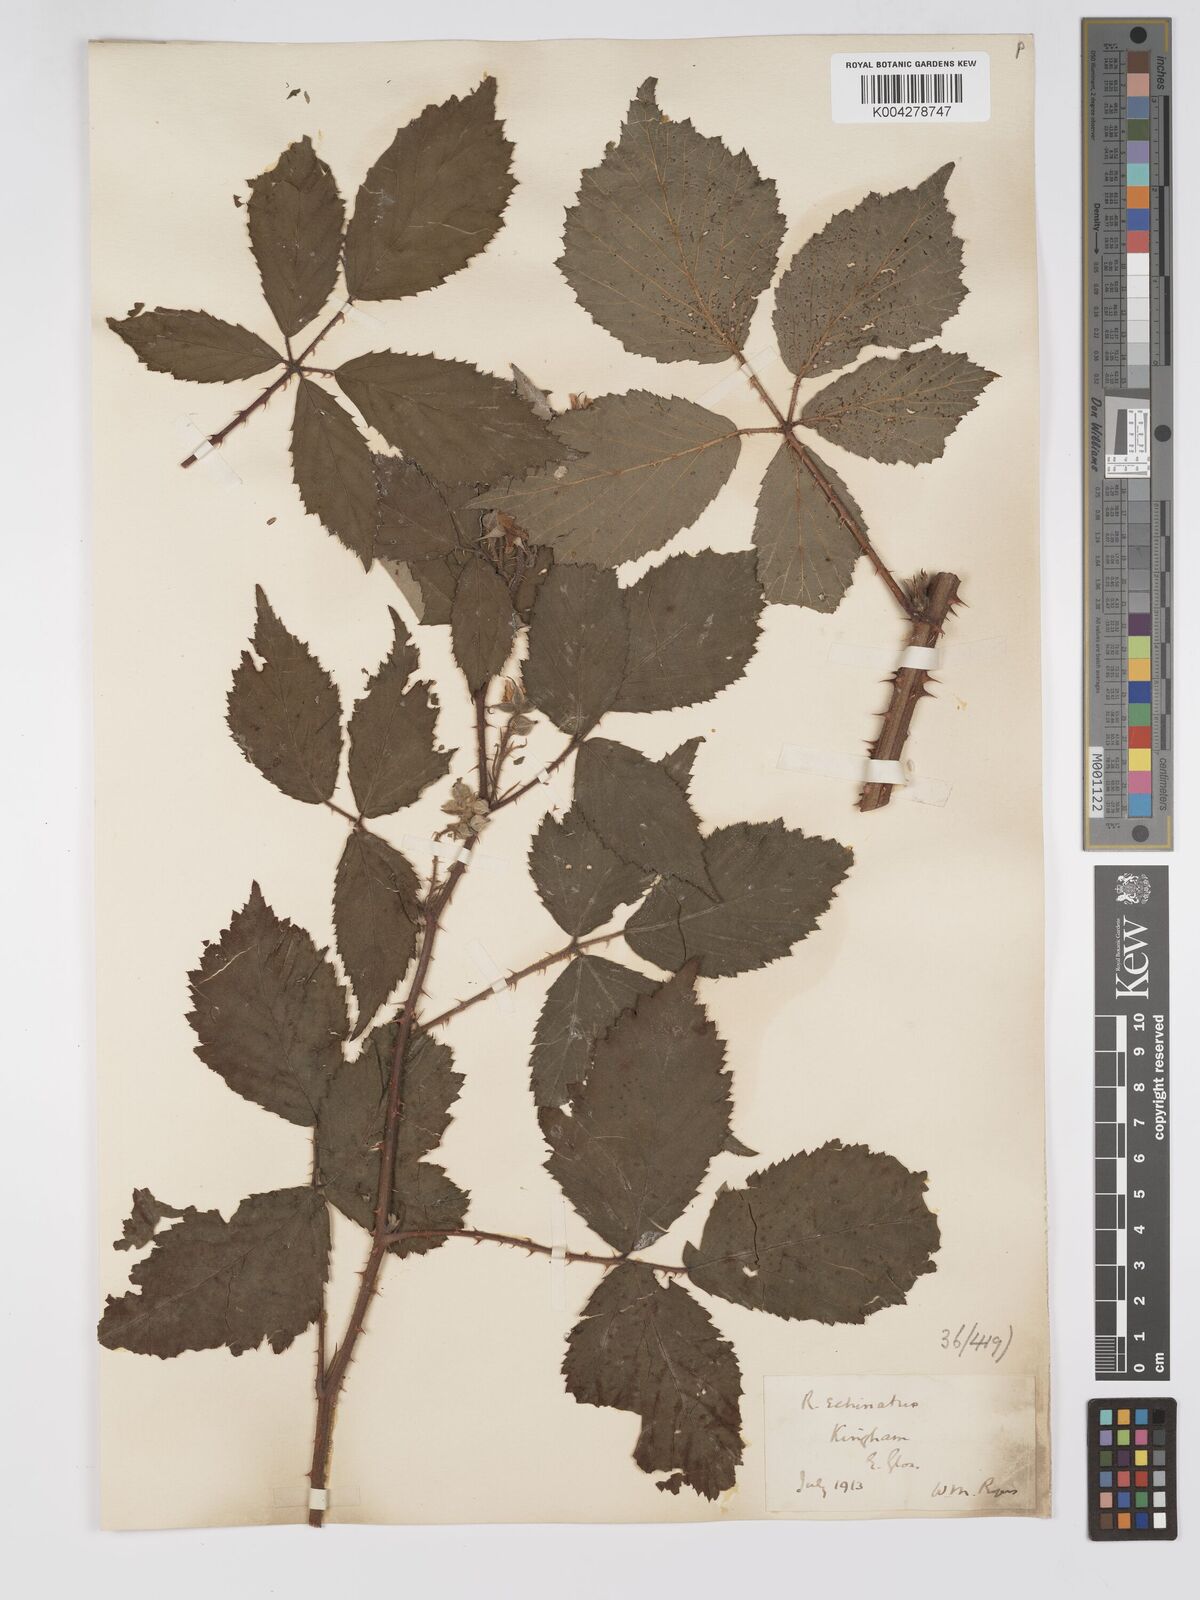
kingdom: Plantae
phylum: Tracheophyta
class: Magnoliopsida
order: Rosales
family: Rosaceae
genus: Rubus
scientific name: Rubus echinatus
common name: Echinate bramble
